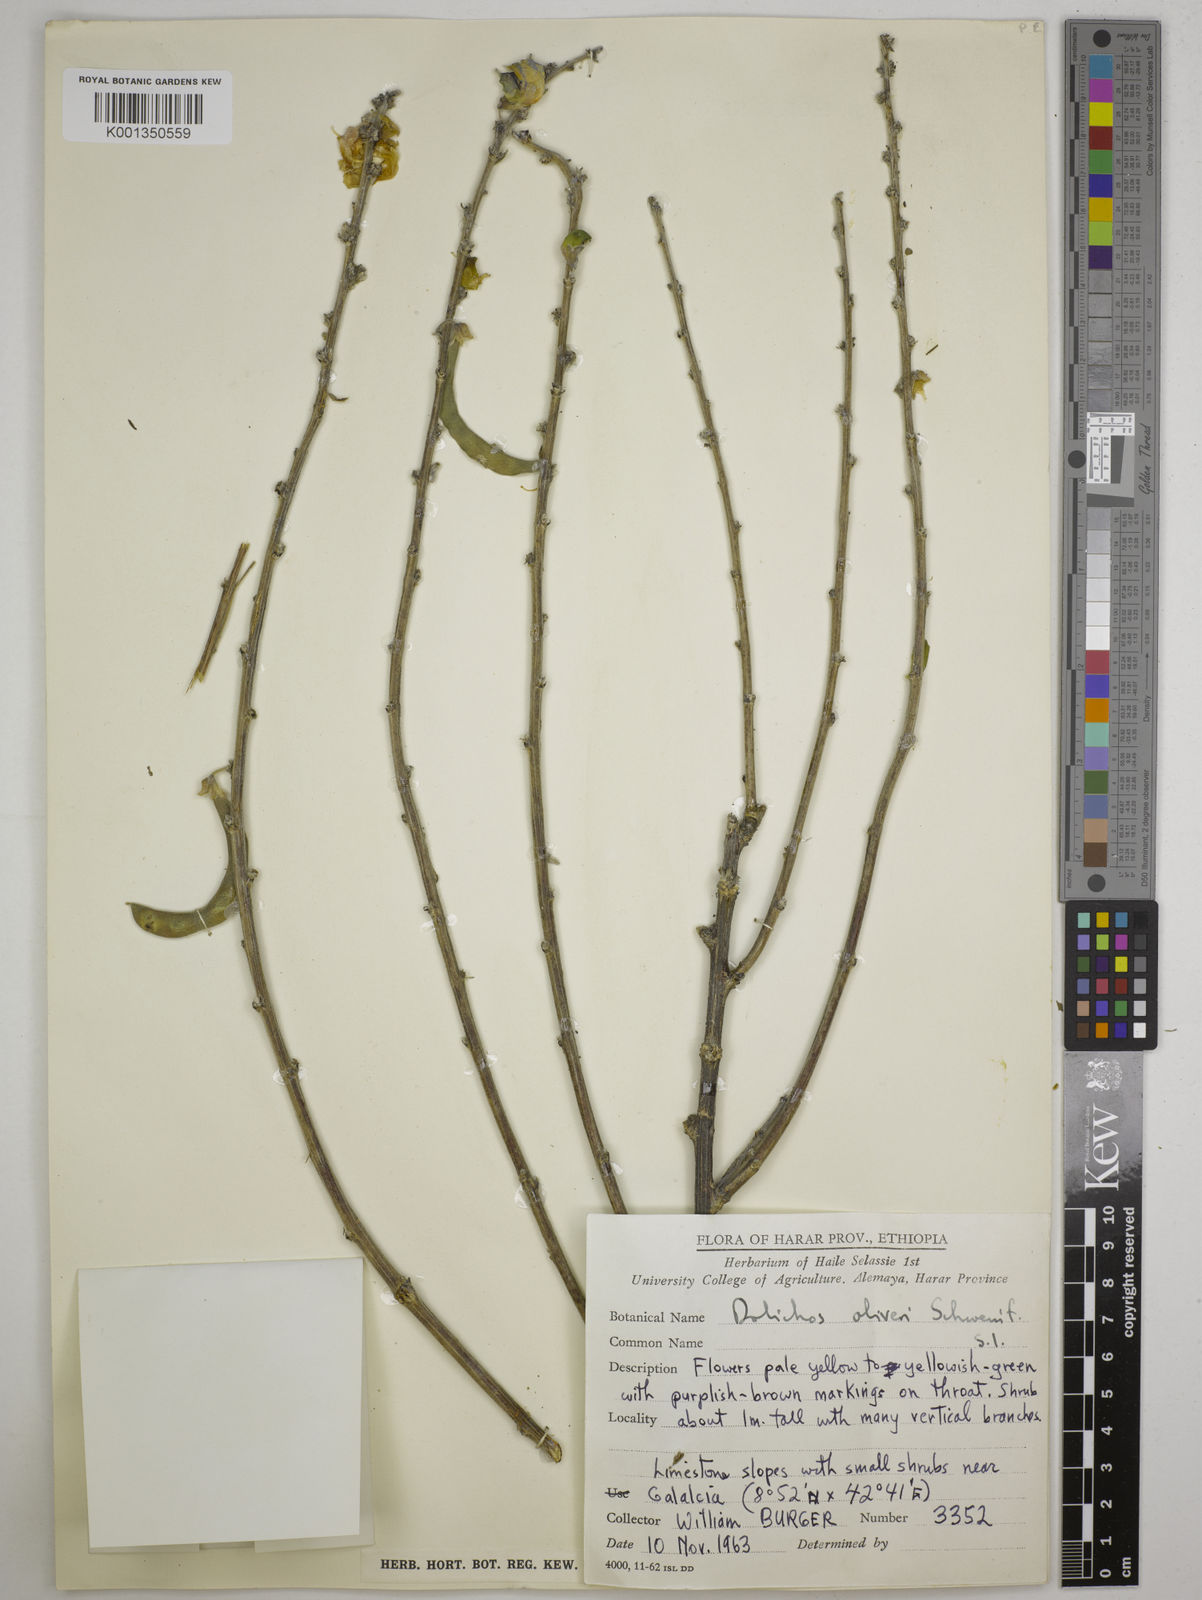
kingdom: Plantae
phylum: Tracheophyta
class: Magnoliopsida
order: Fabales
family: Fabaceae
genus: Dolichos
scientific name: Dolichos oliveri
